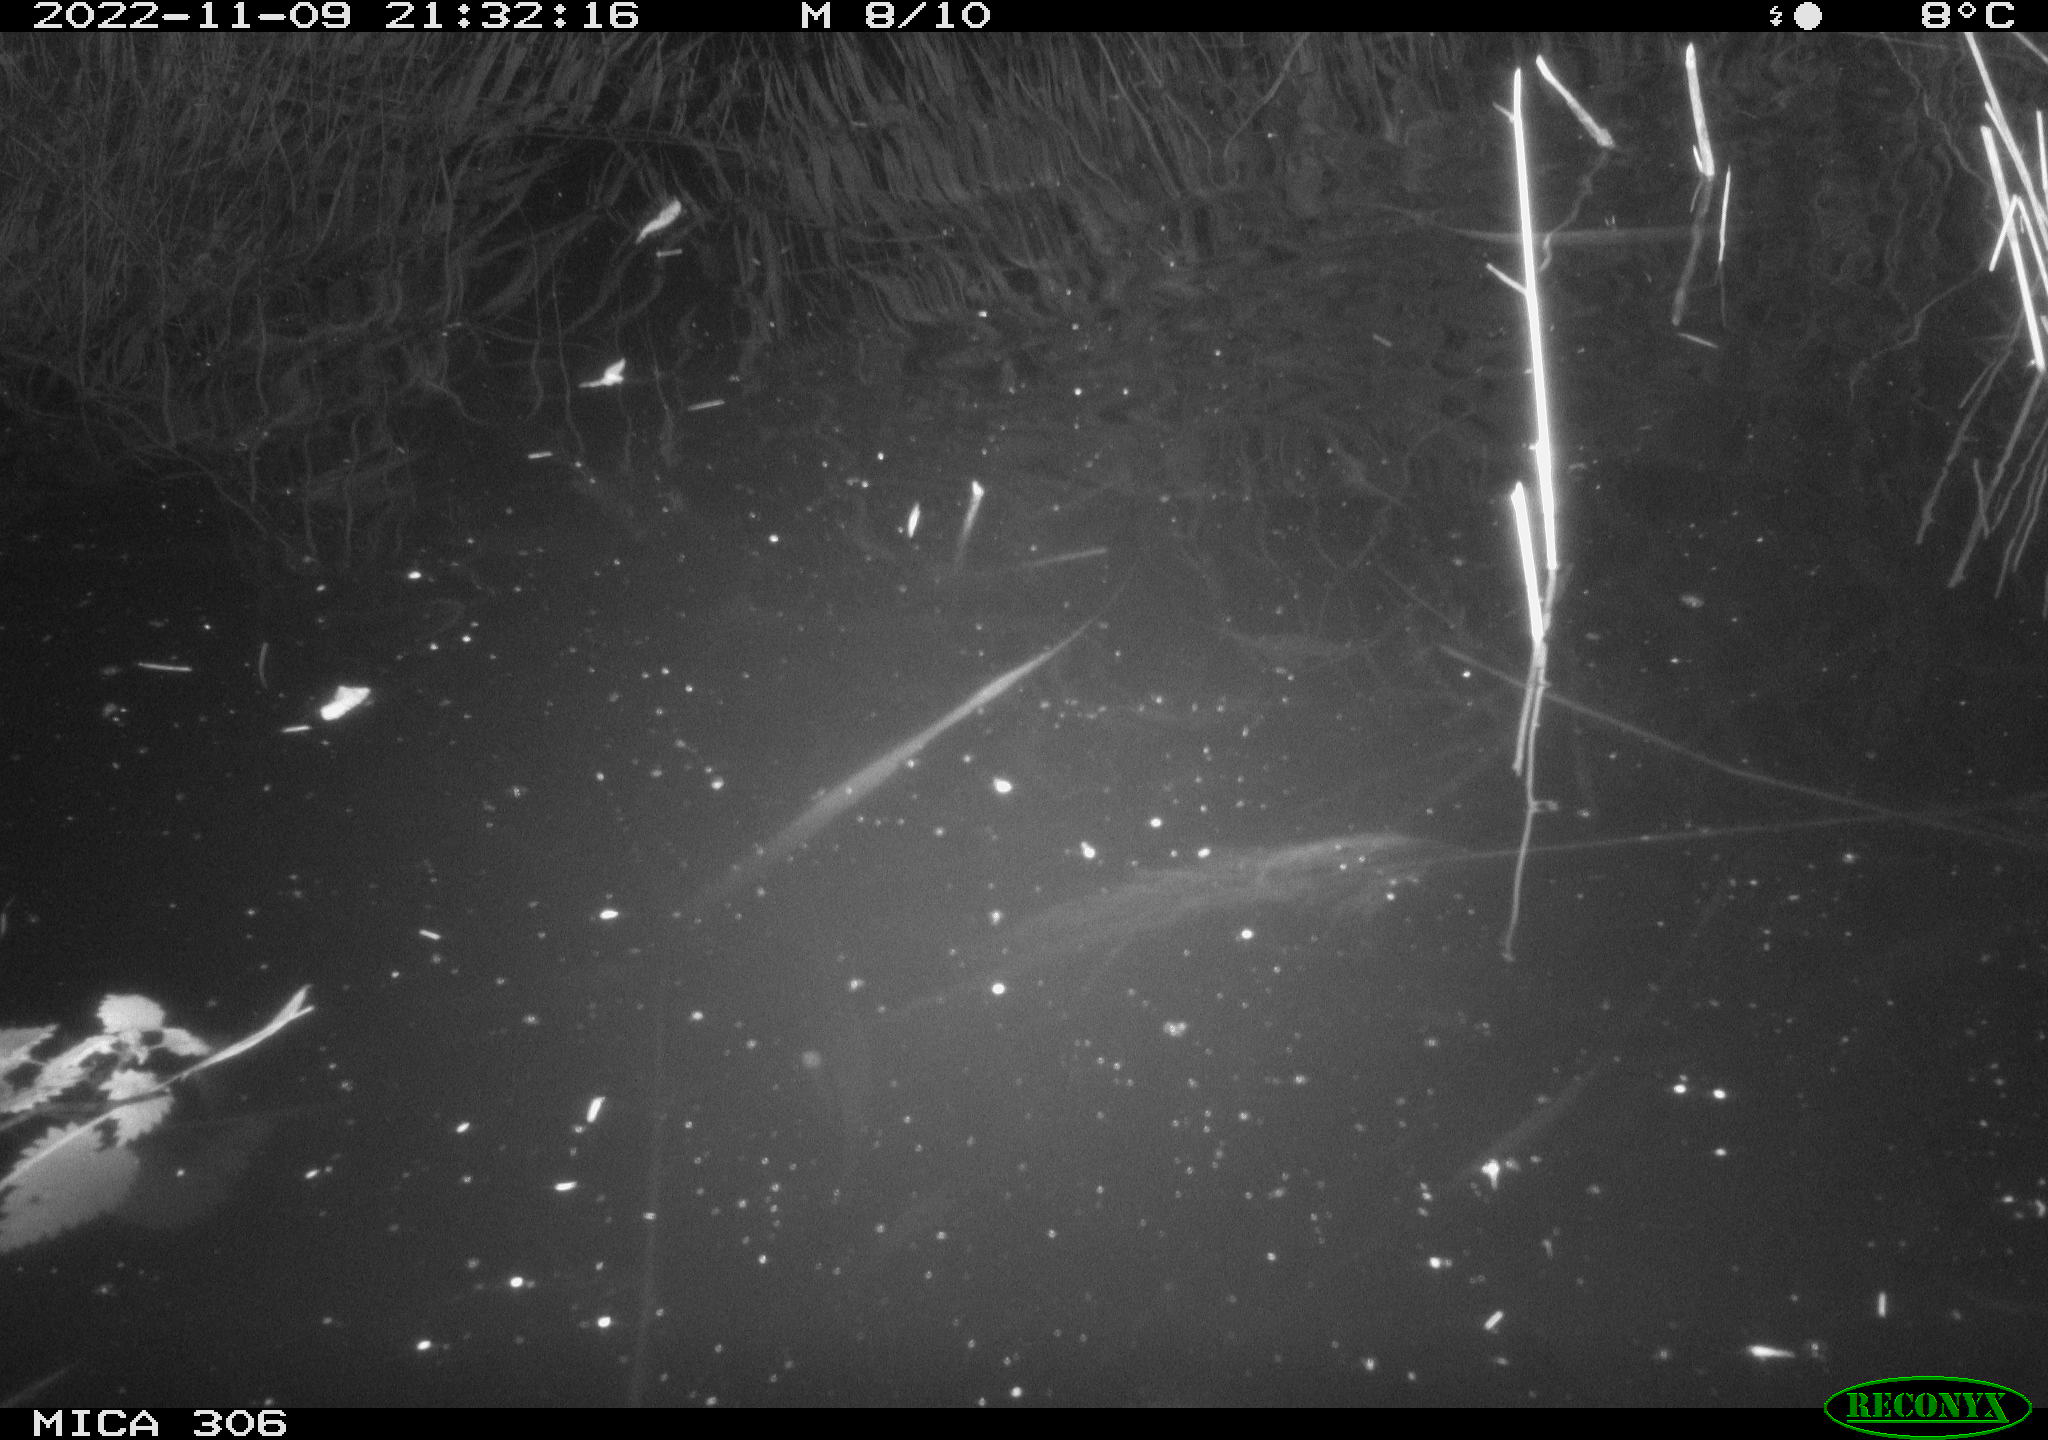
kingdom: Animalia
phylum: Chordata
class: Mammalia
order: Rodentia
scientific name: Rodentia
